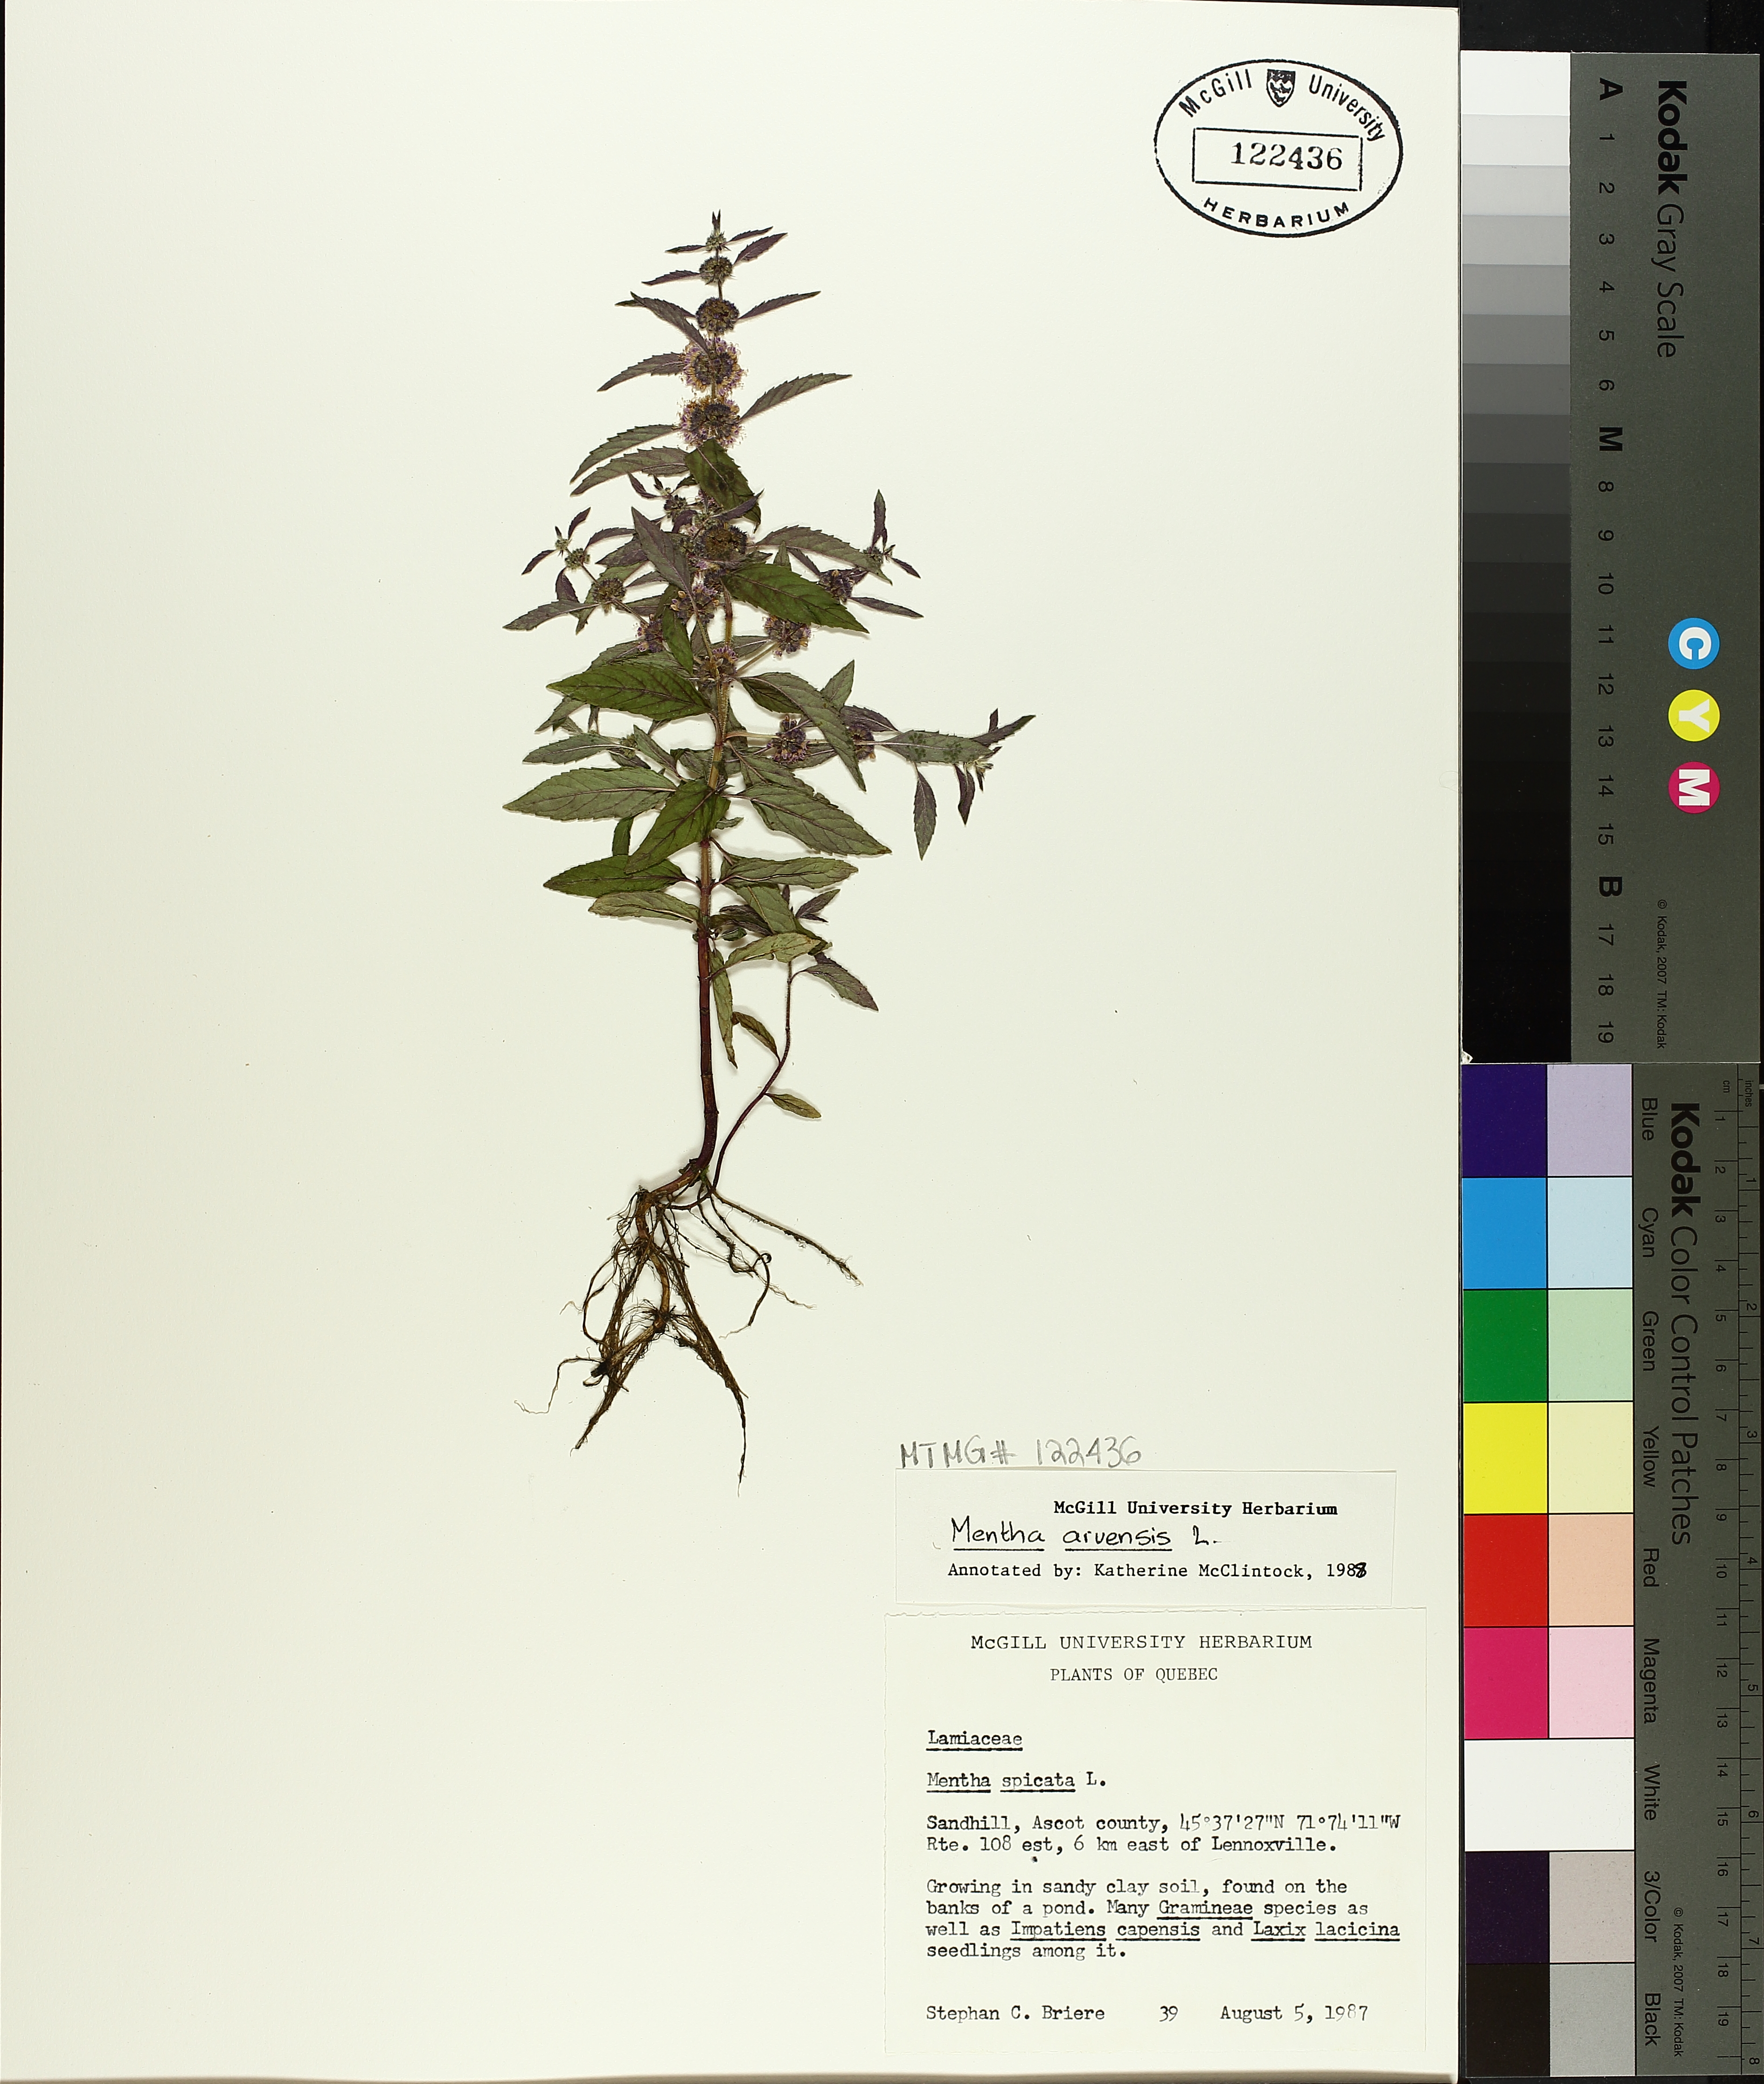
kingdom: Plantae
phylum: Tracheophyta
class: Magnoliopsida
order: Lamiales
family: Lamiaceae
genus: Mentha
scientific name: Mentha arvensis
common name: Corn mint
